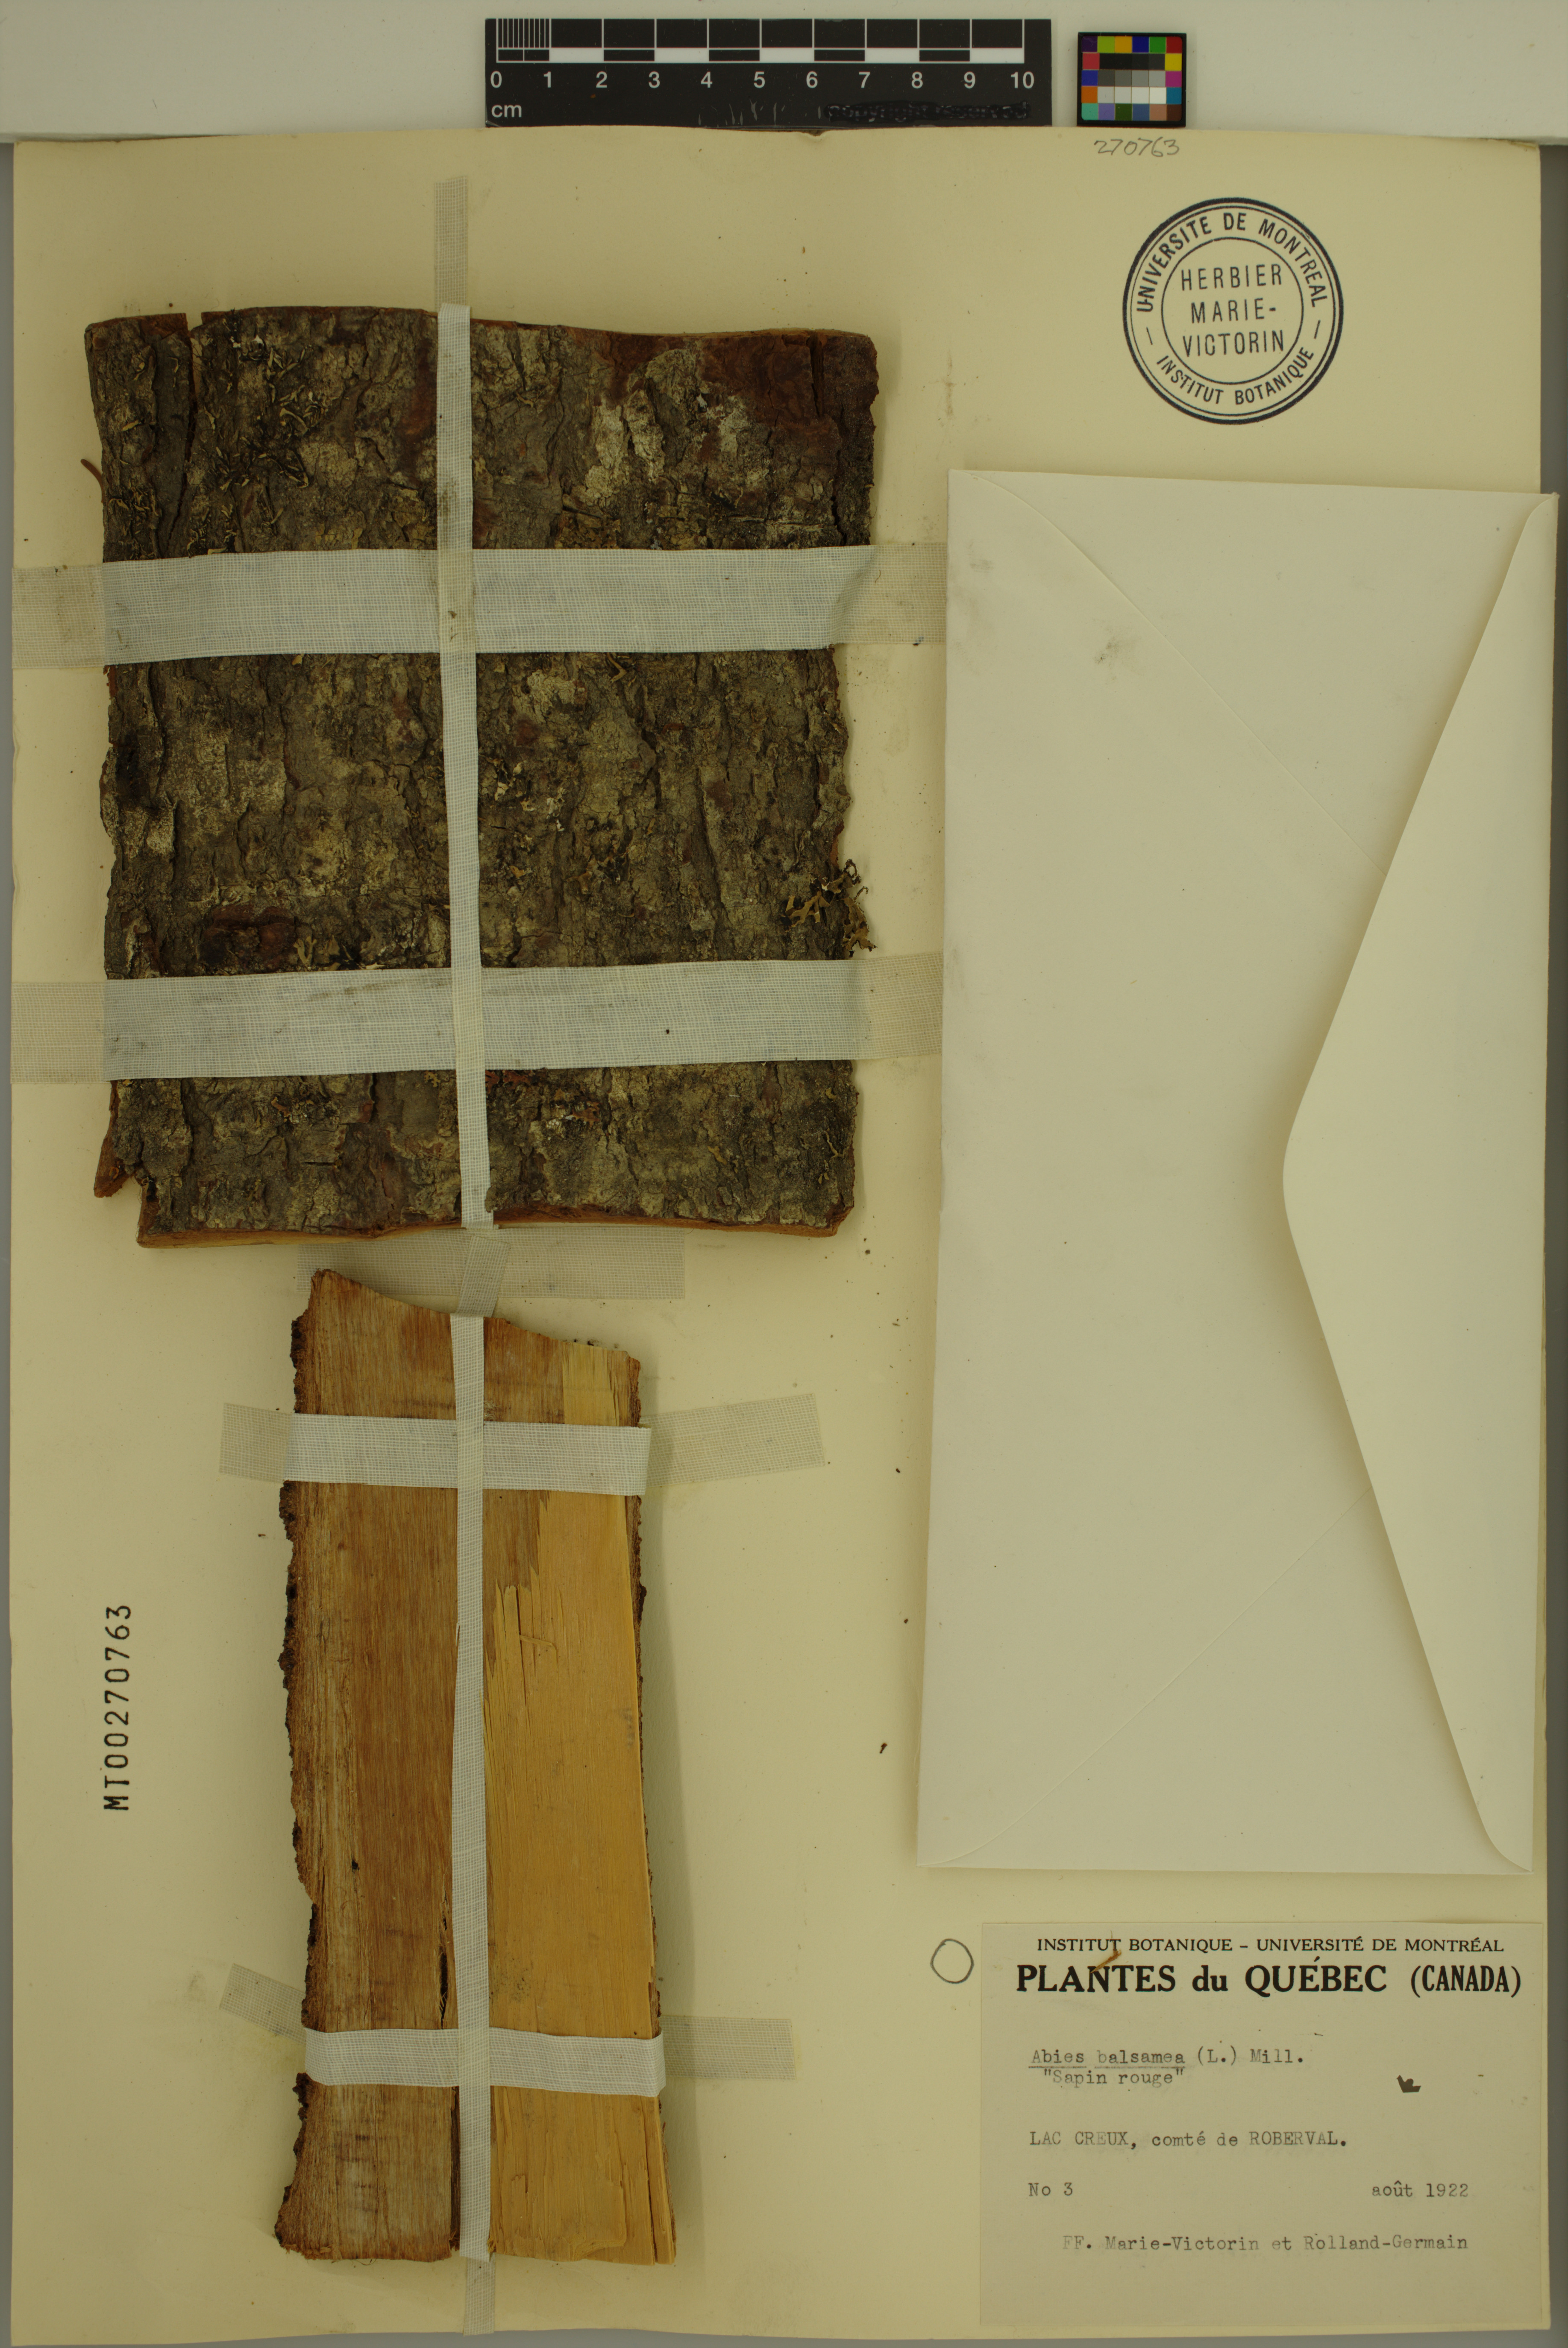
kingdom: Plantae
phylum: Tracheophyta
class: Pinopsida
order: Pinales
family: Pinaceae
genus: Abies
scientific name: Abies balsamea
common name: Balsam fir
